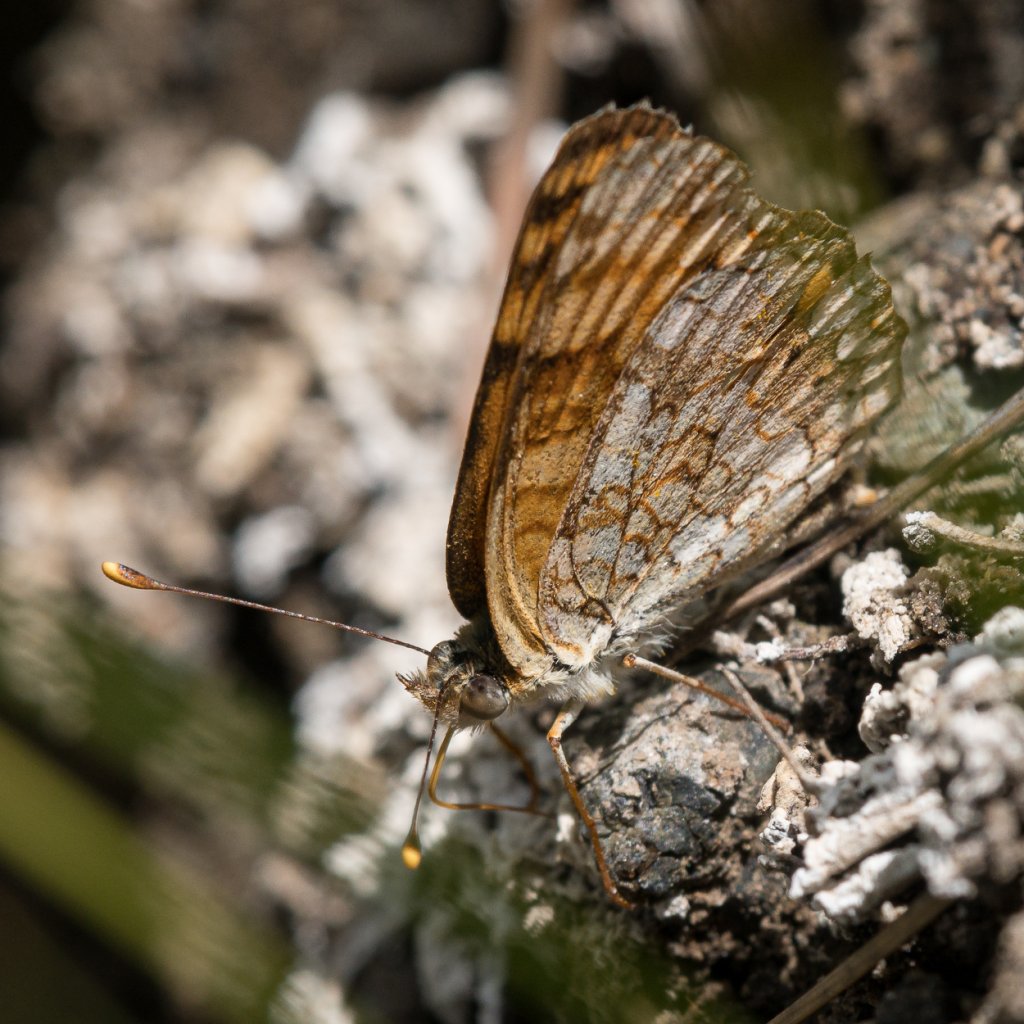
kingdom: Animalia
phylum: Arthropoda
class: Insecta
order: Lepidoptera
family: Nymphalidae
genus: Phyciodes
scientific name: Phyciodes pallida
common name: Pale Crescent
